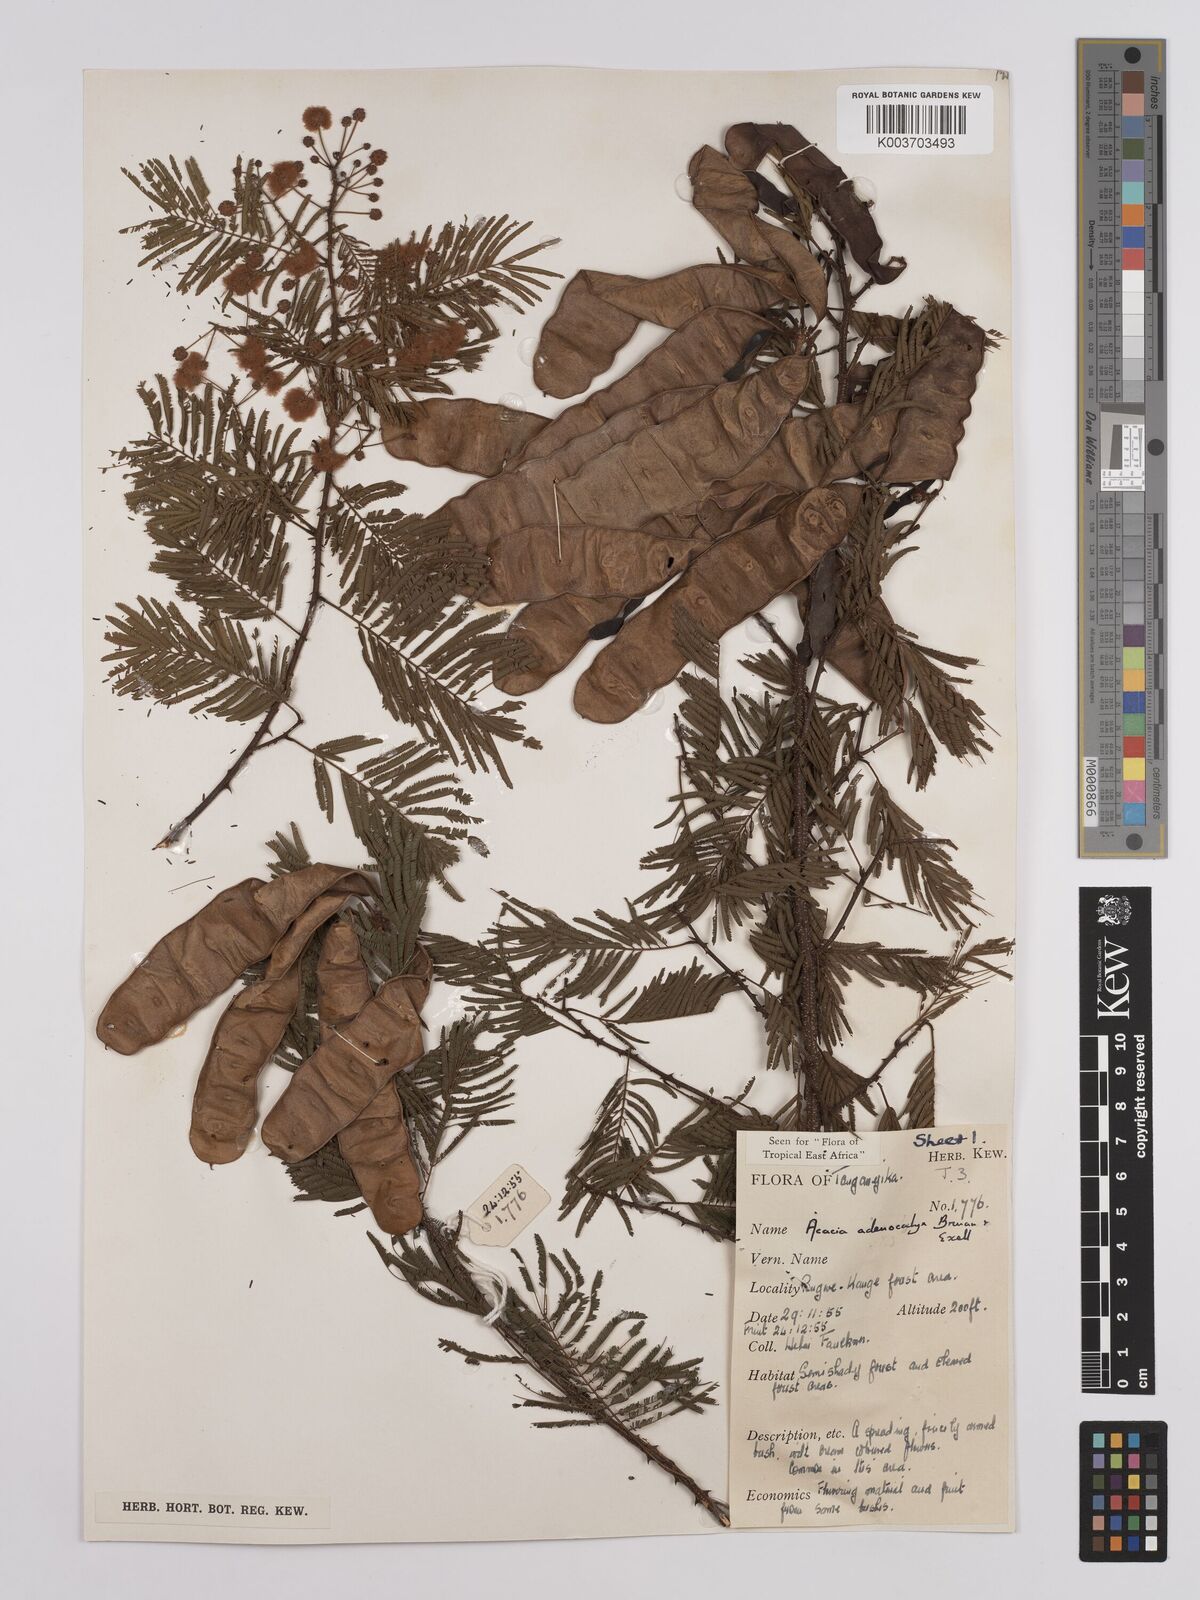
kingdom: Plantae
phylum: Tracheophyta
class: Magnoliopsida
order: Fabales
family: Fabaceae
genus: Senegalia
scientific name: Senegalia adenocalyx
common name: Pfurura
